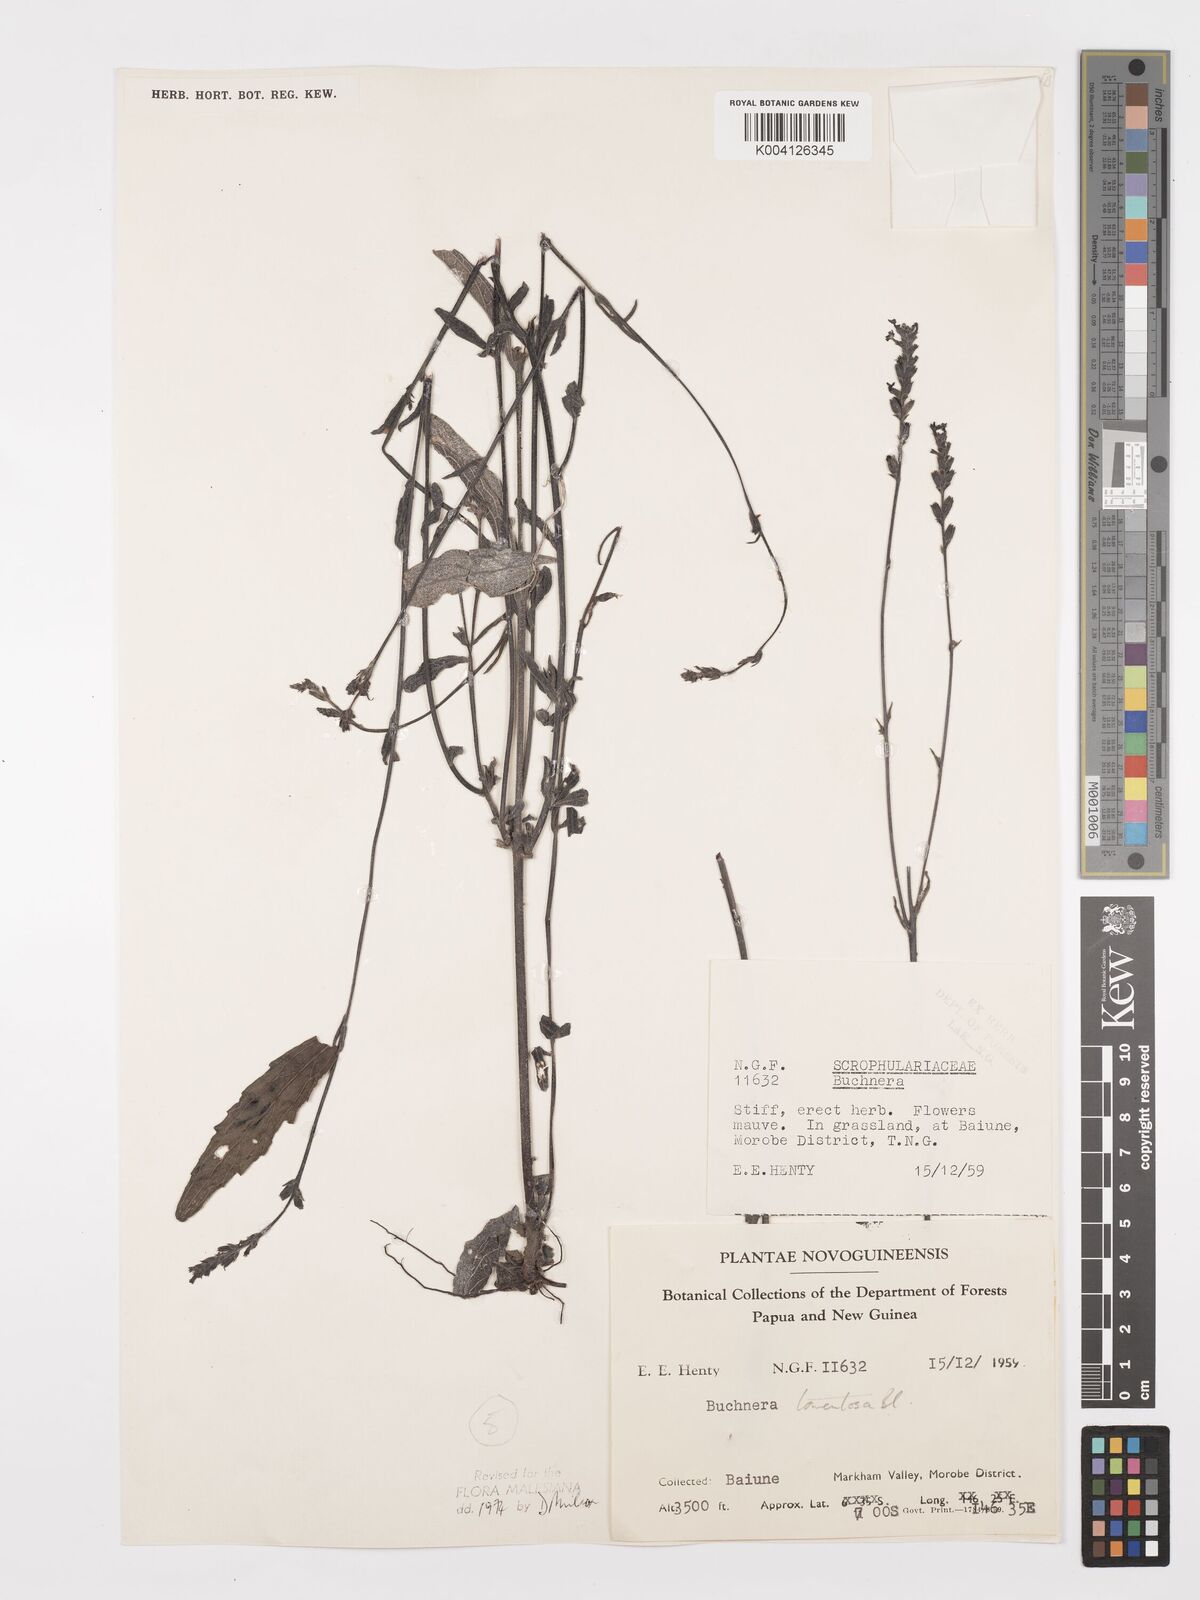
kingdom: Plantae
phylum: Tracheophyta
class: Magnoliopsida
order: Lamiales
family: Orobanchaceae
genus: Buchnera
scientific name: Buchnera tomentosa
